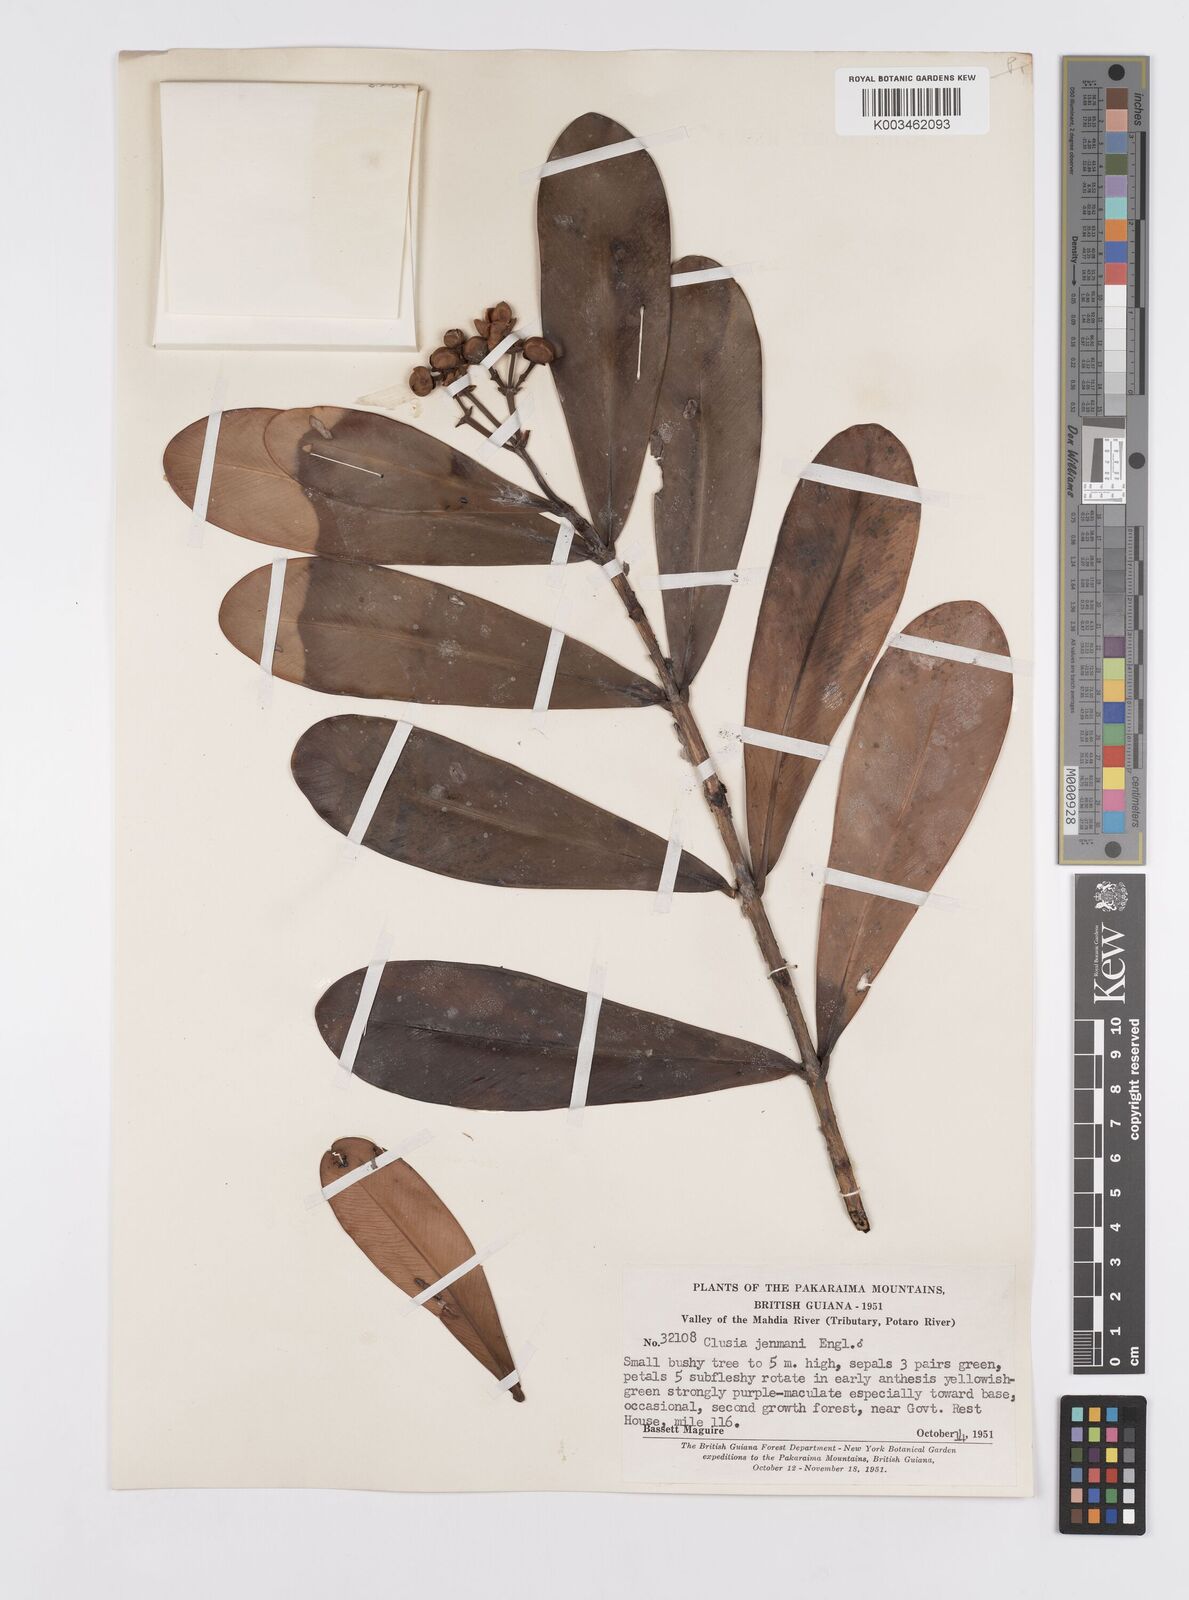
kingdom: Plantae
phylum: Tracheophyta
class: Magnoliopsida
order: Malpighiales
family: Clusiaceae
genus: Clusia
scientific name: Clusia myriandra
